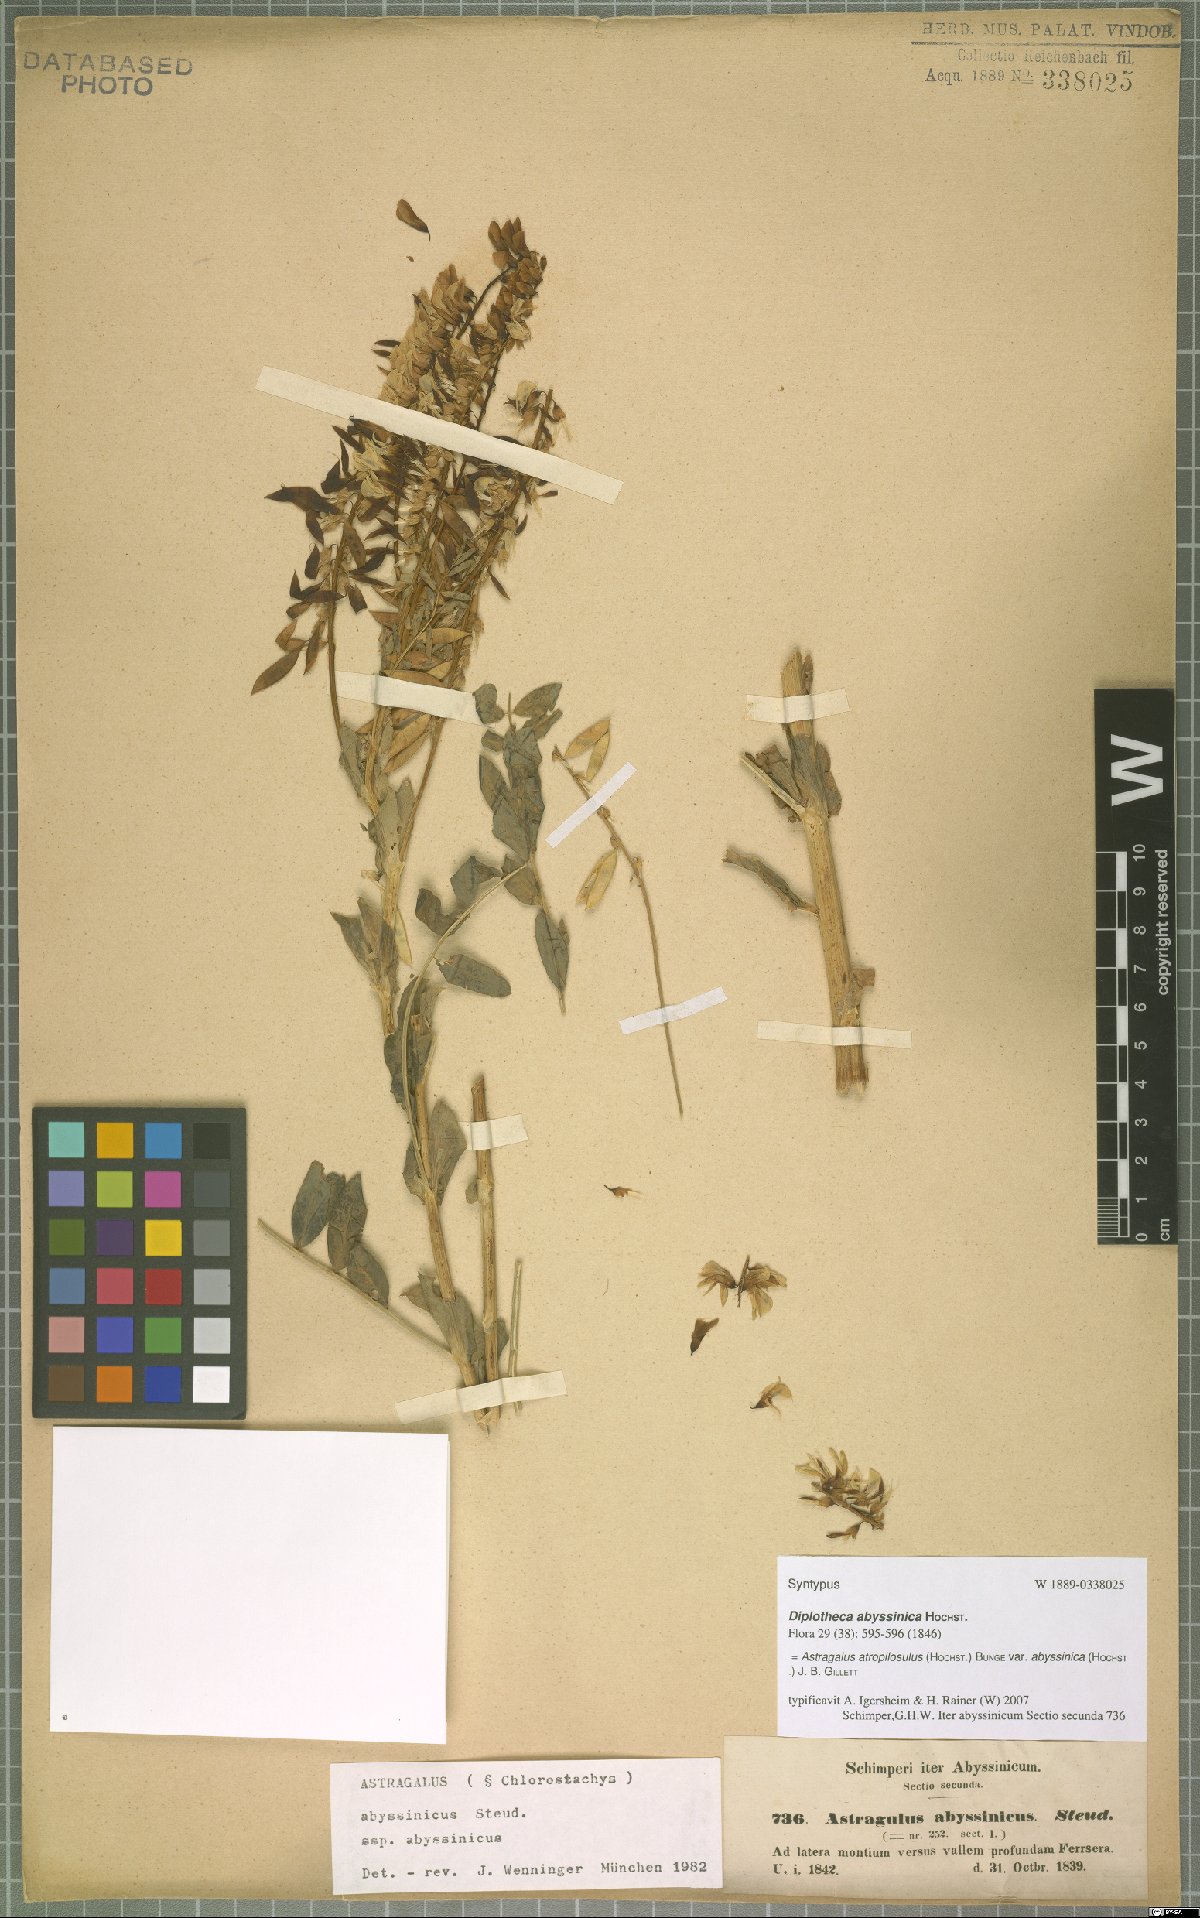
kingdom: Plantae
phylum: Tracheophyta
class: Magnoliopsida
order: Fabales
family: Fabaceae
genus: Astragalus
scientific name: Astragalus atropilosulus
